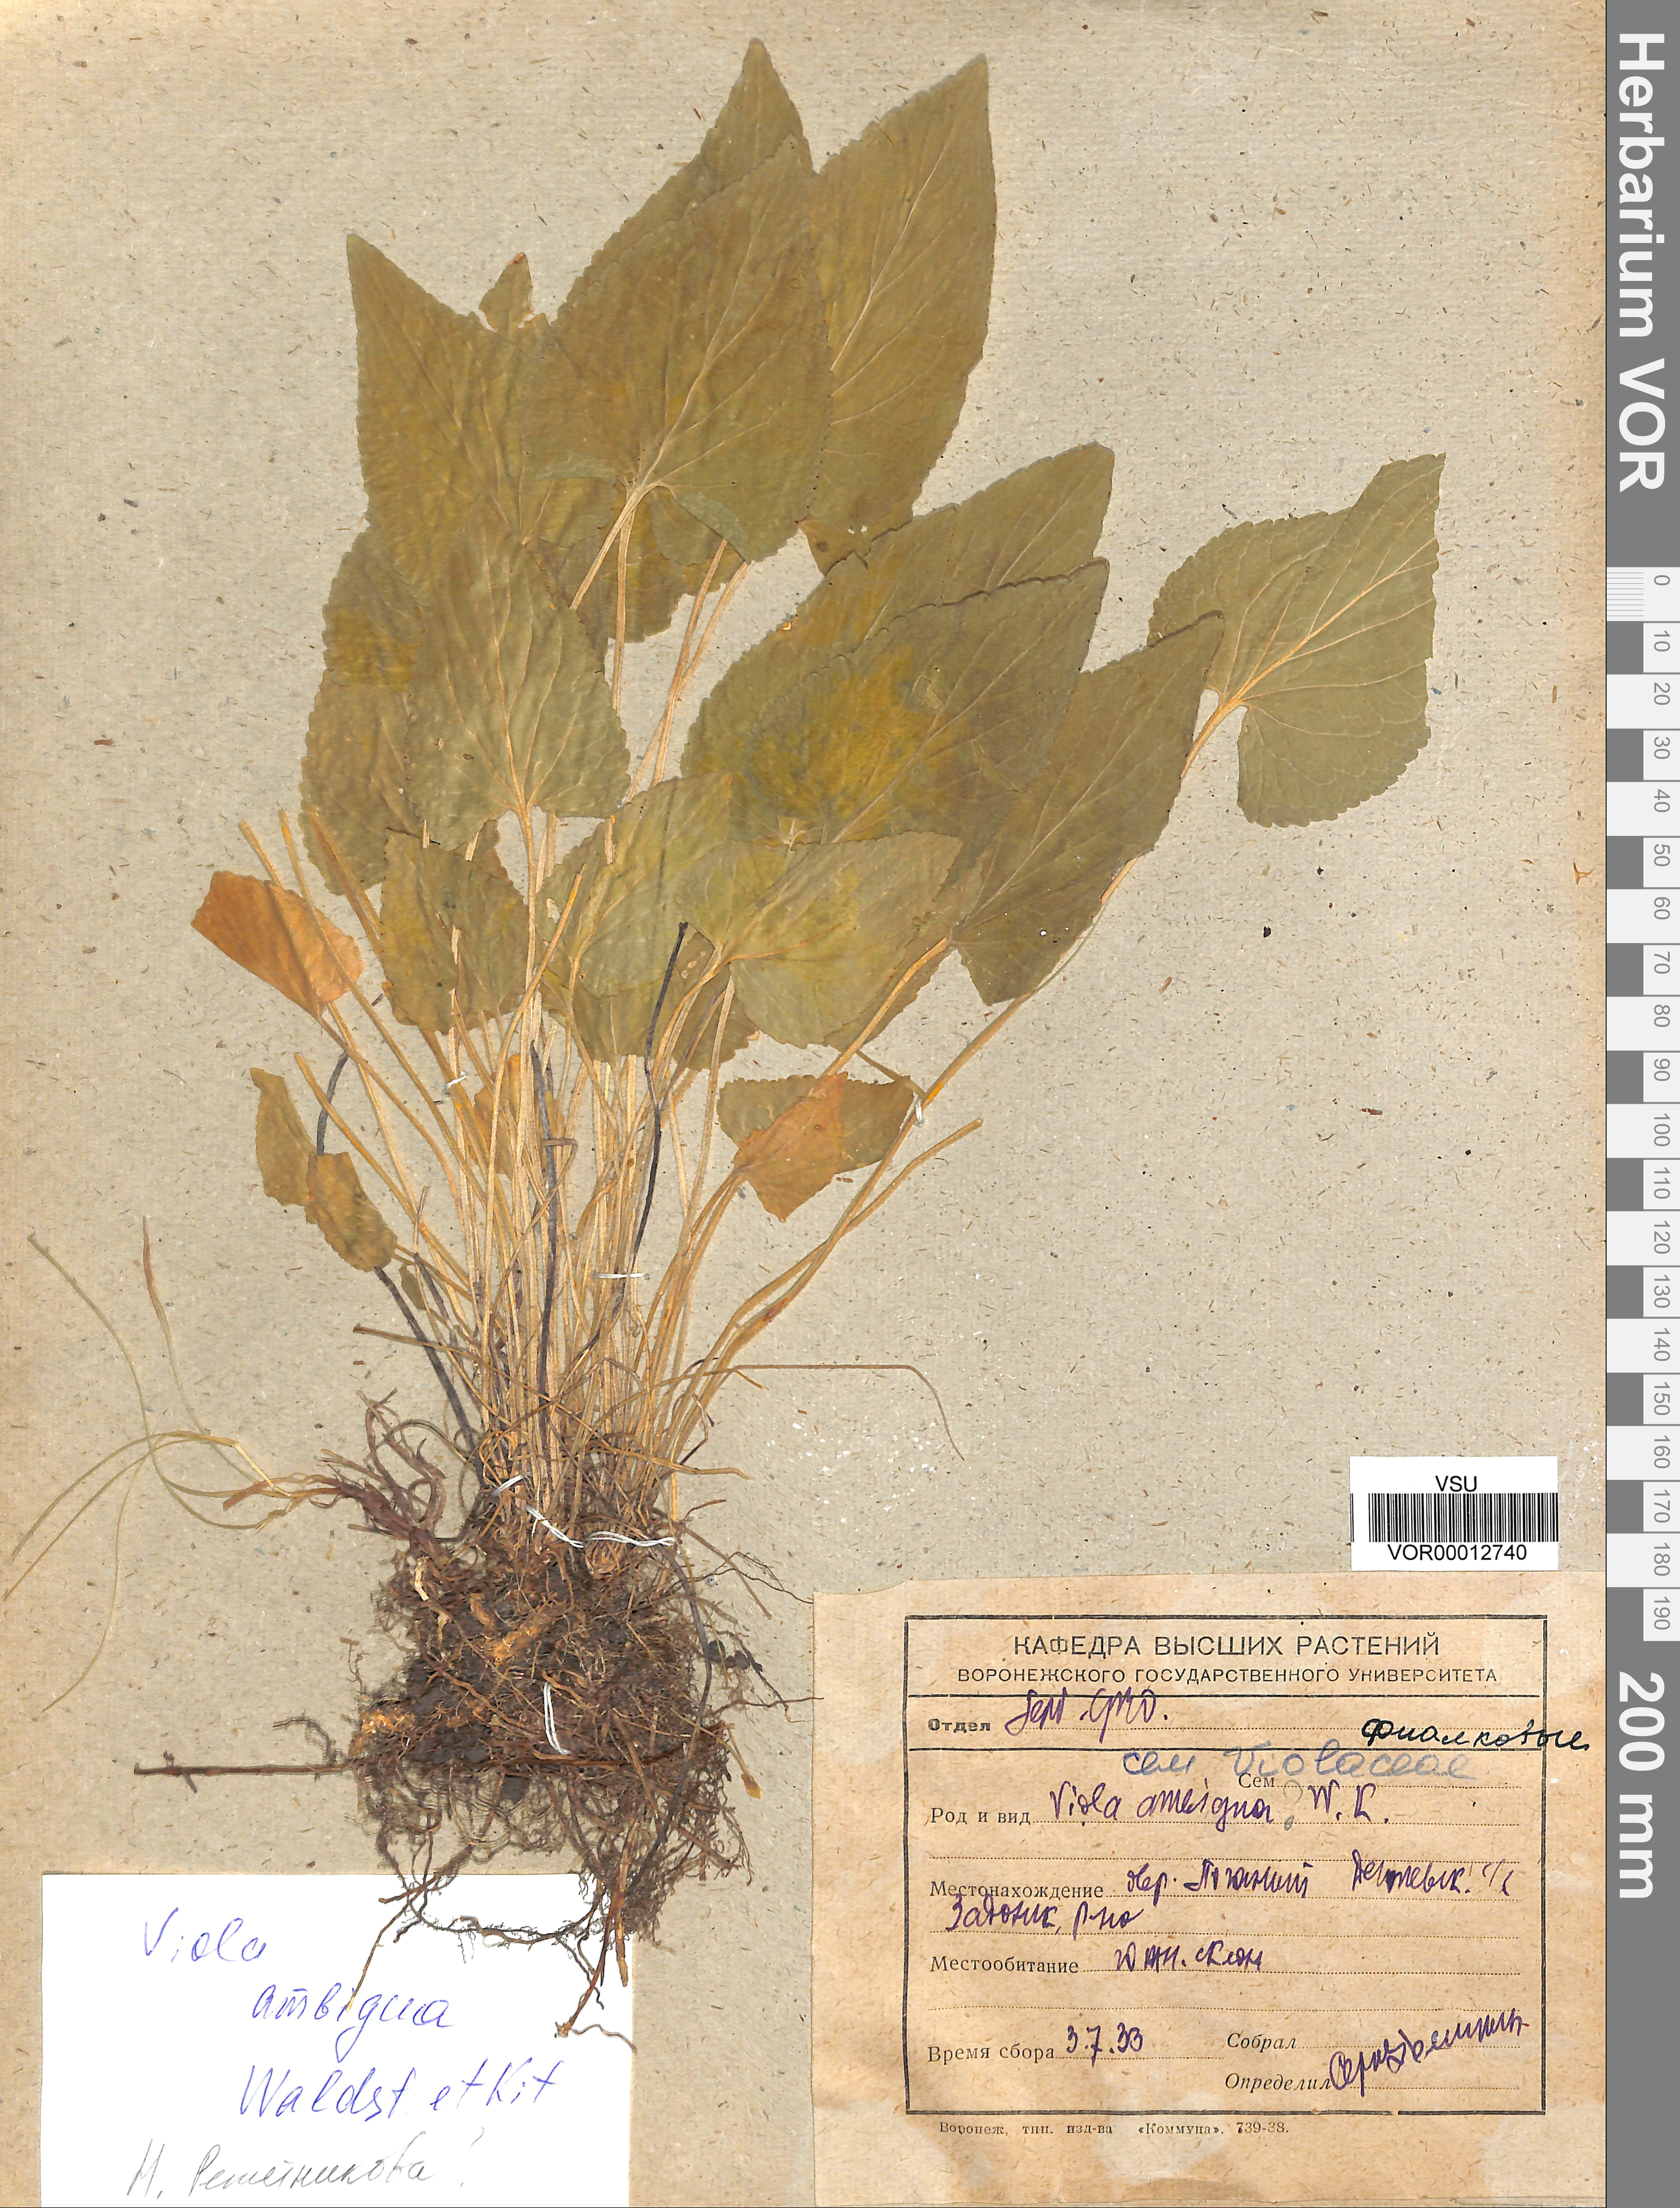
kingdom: Plantae
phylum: Tracheophyta
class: Magnoliopsida
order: Malpighiales
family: Violaceae
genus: Viola
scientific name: Viola ambigua
